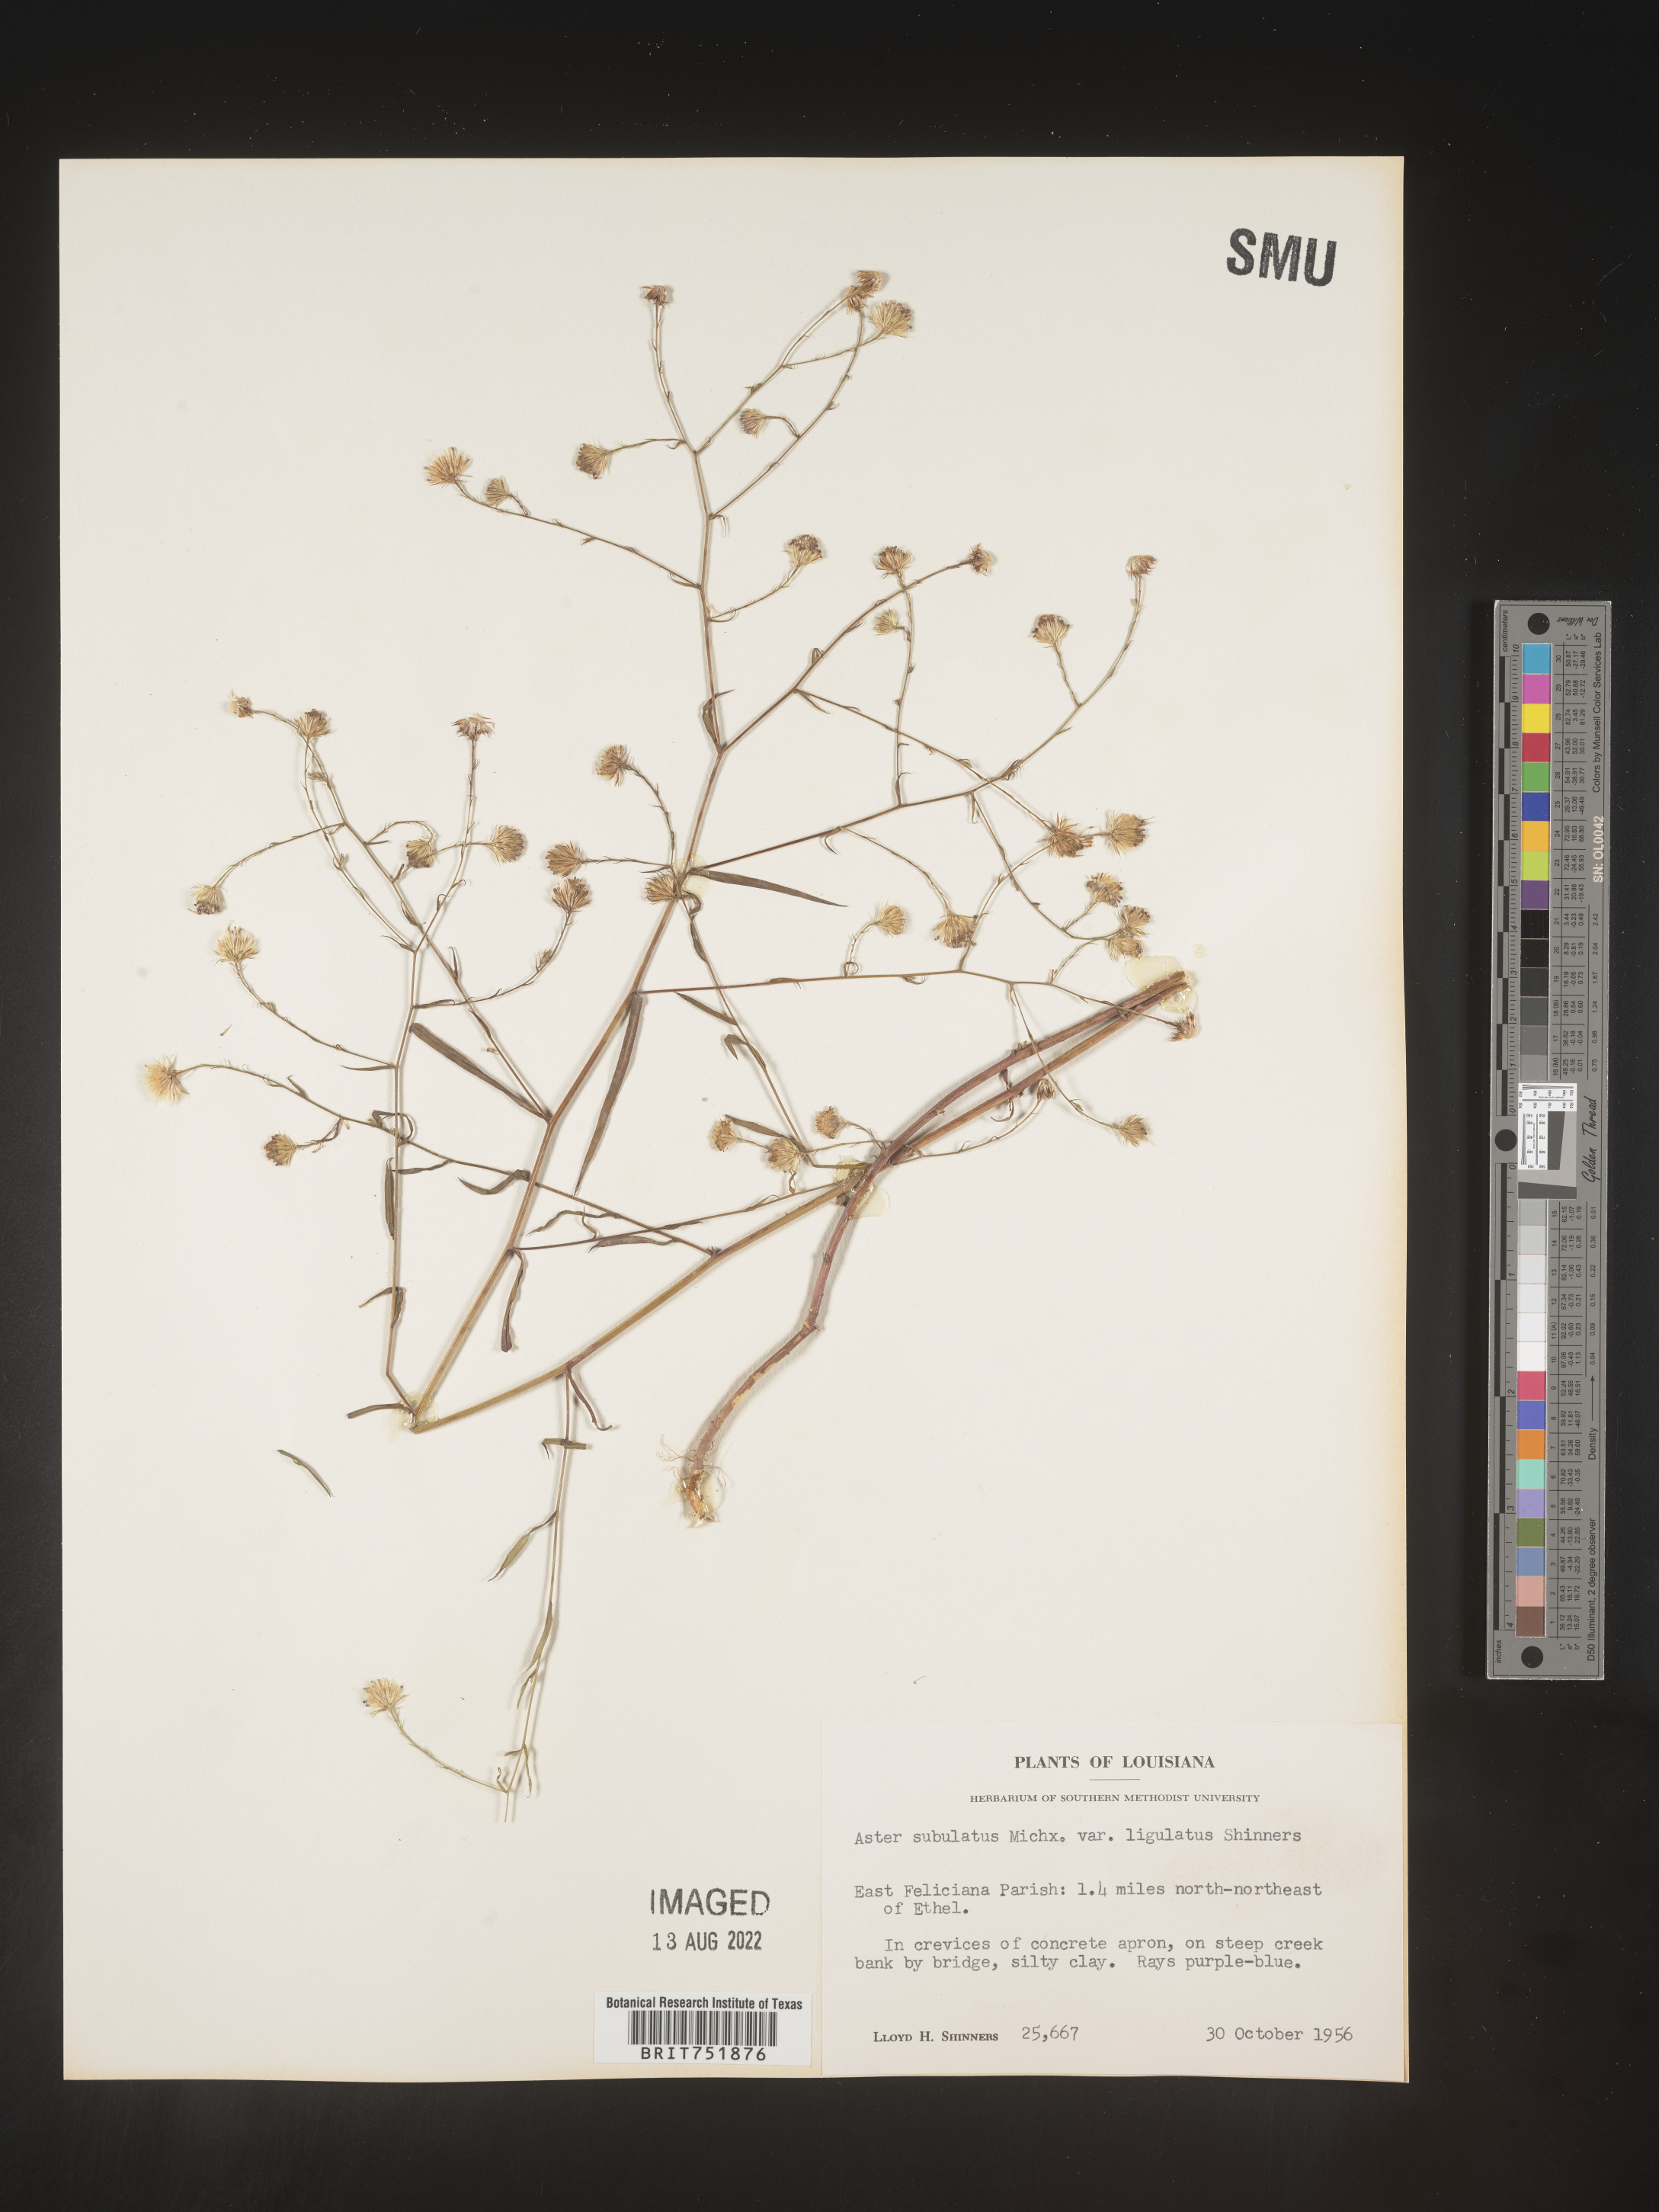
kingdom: Plantae
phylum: Tracheophyta
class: Magnoliopsida
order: Asterales
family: Asteraceae
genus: Symphyotrichum
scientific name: Symphyotrichum divaricatum
